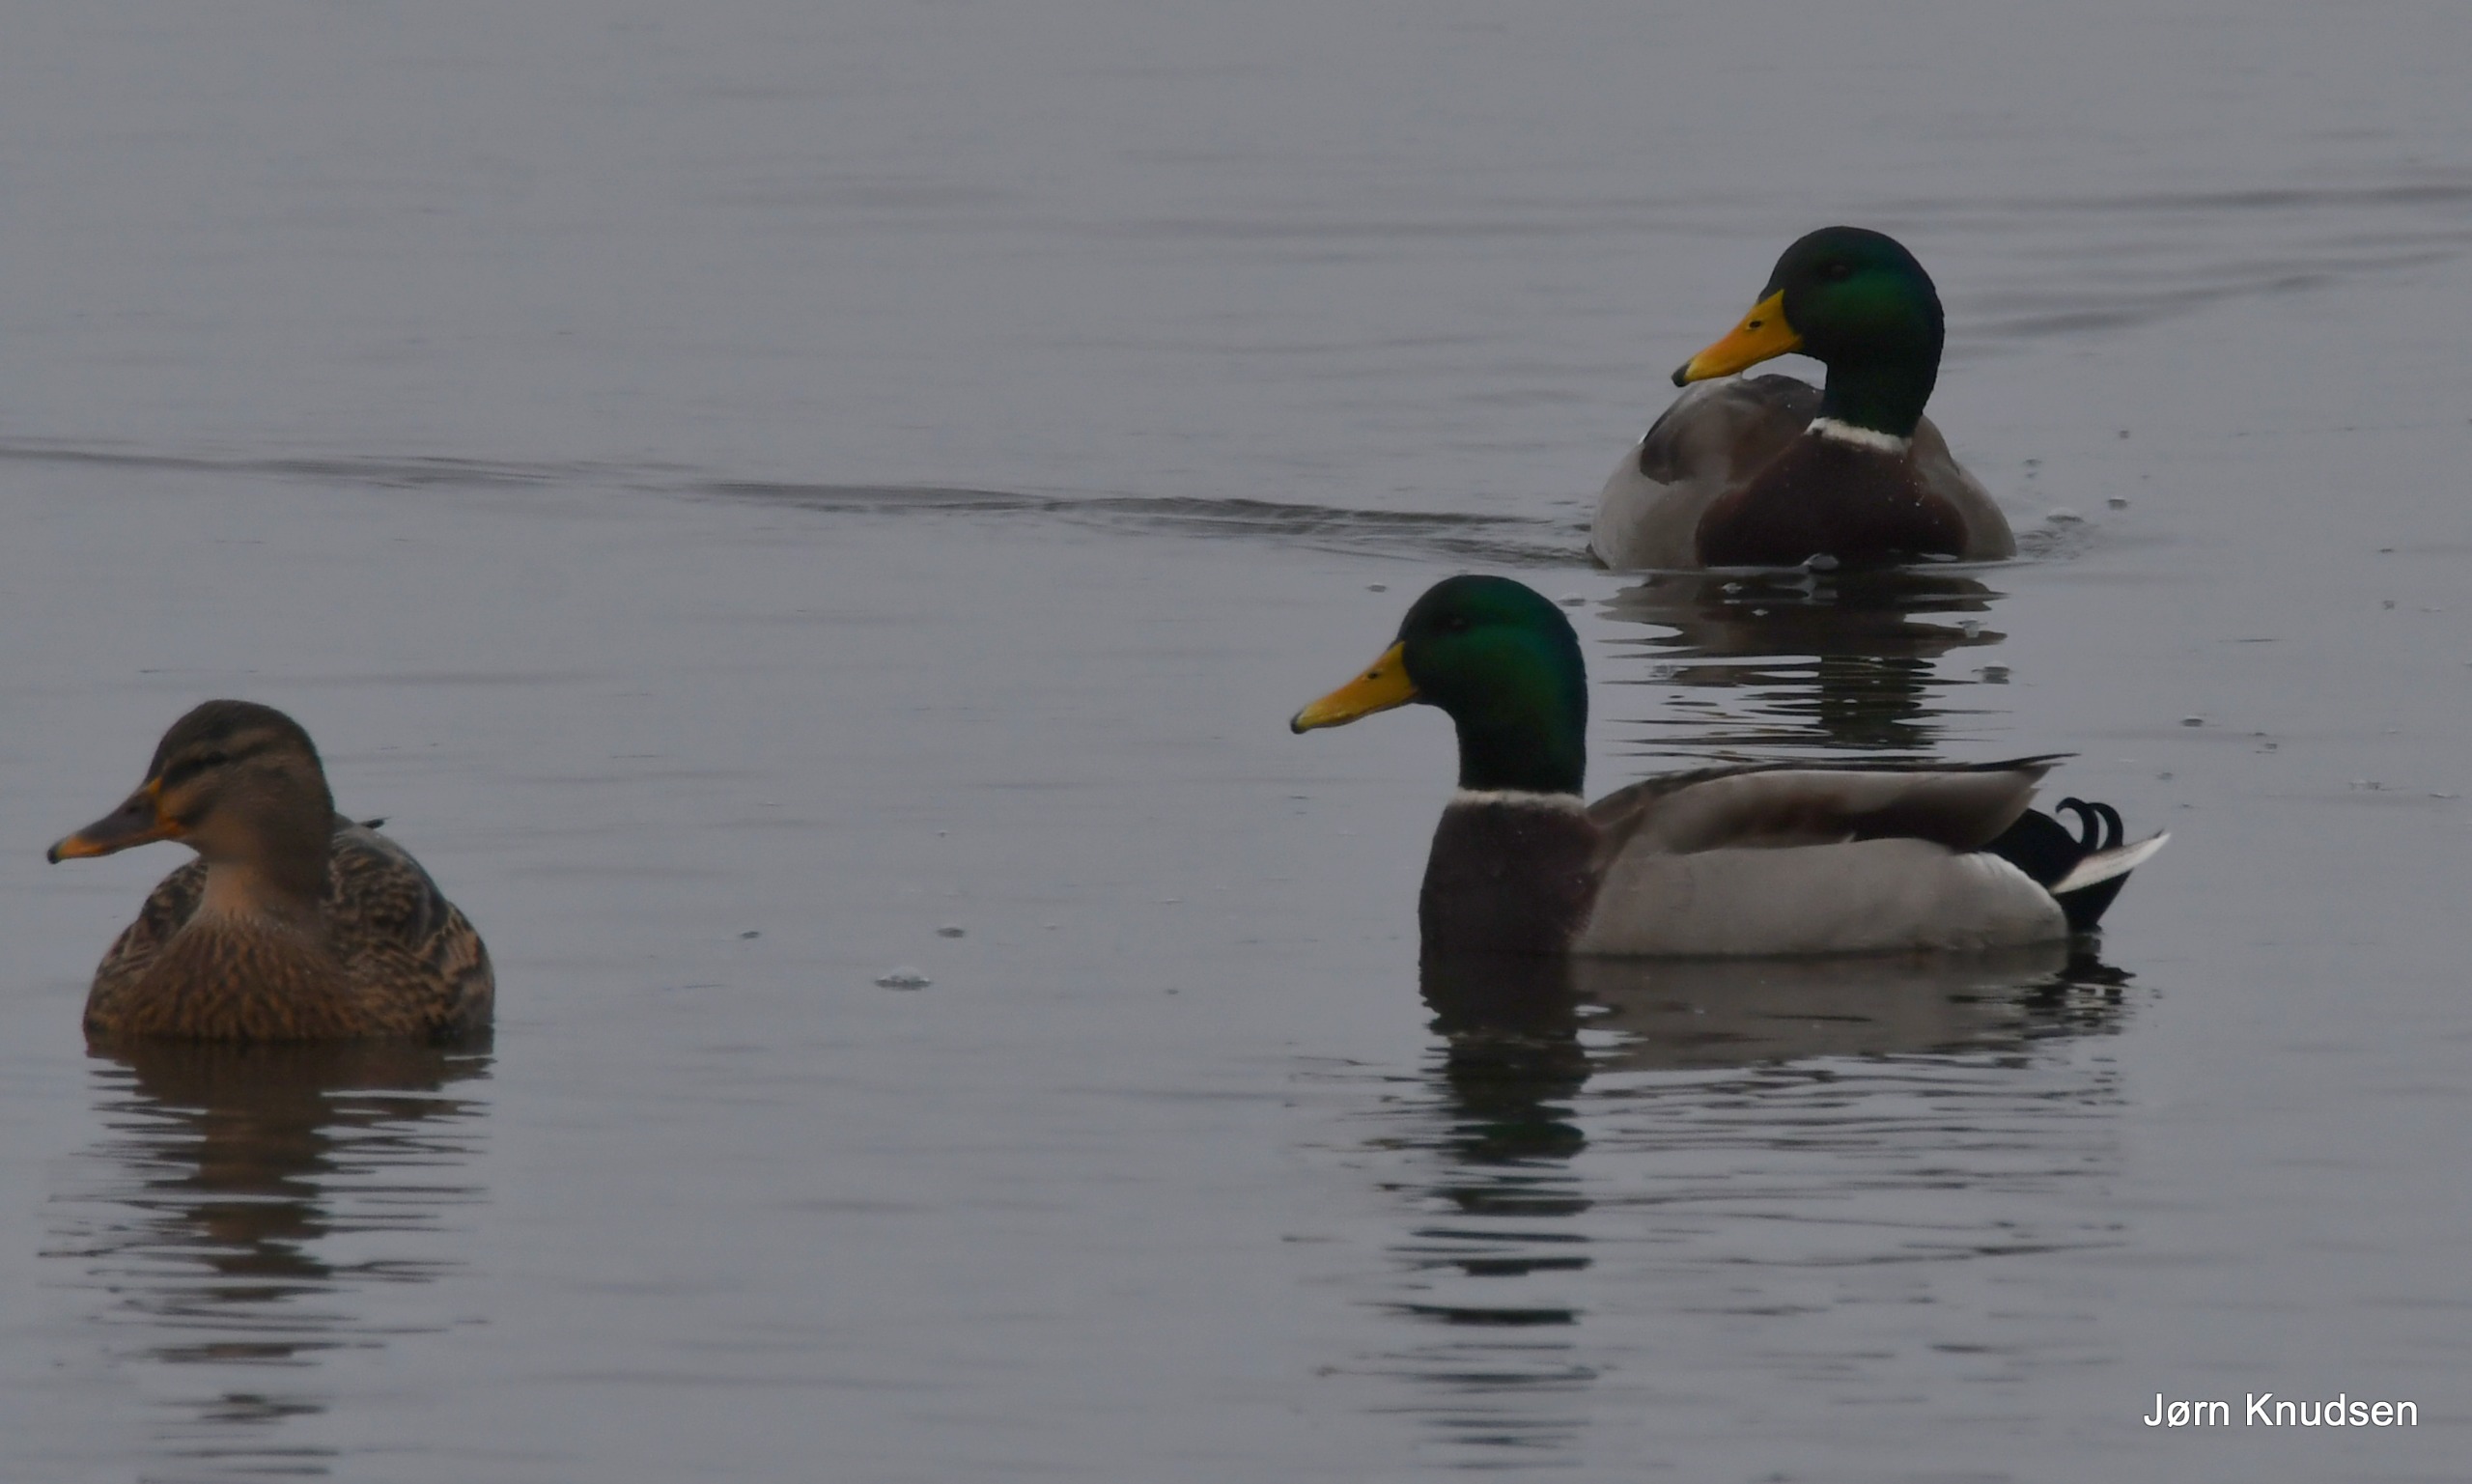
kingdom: Animalia
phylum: Chordata
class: Aves
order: Anseriformes
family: Anatidae
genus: Anas
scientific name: Anas platyrhynchos
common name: Gråand
